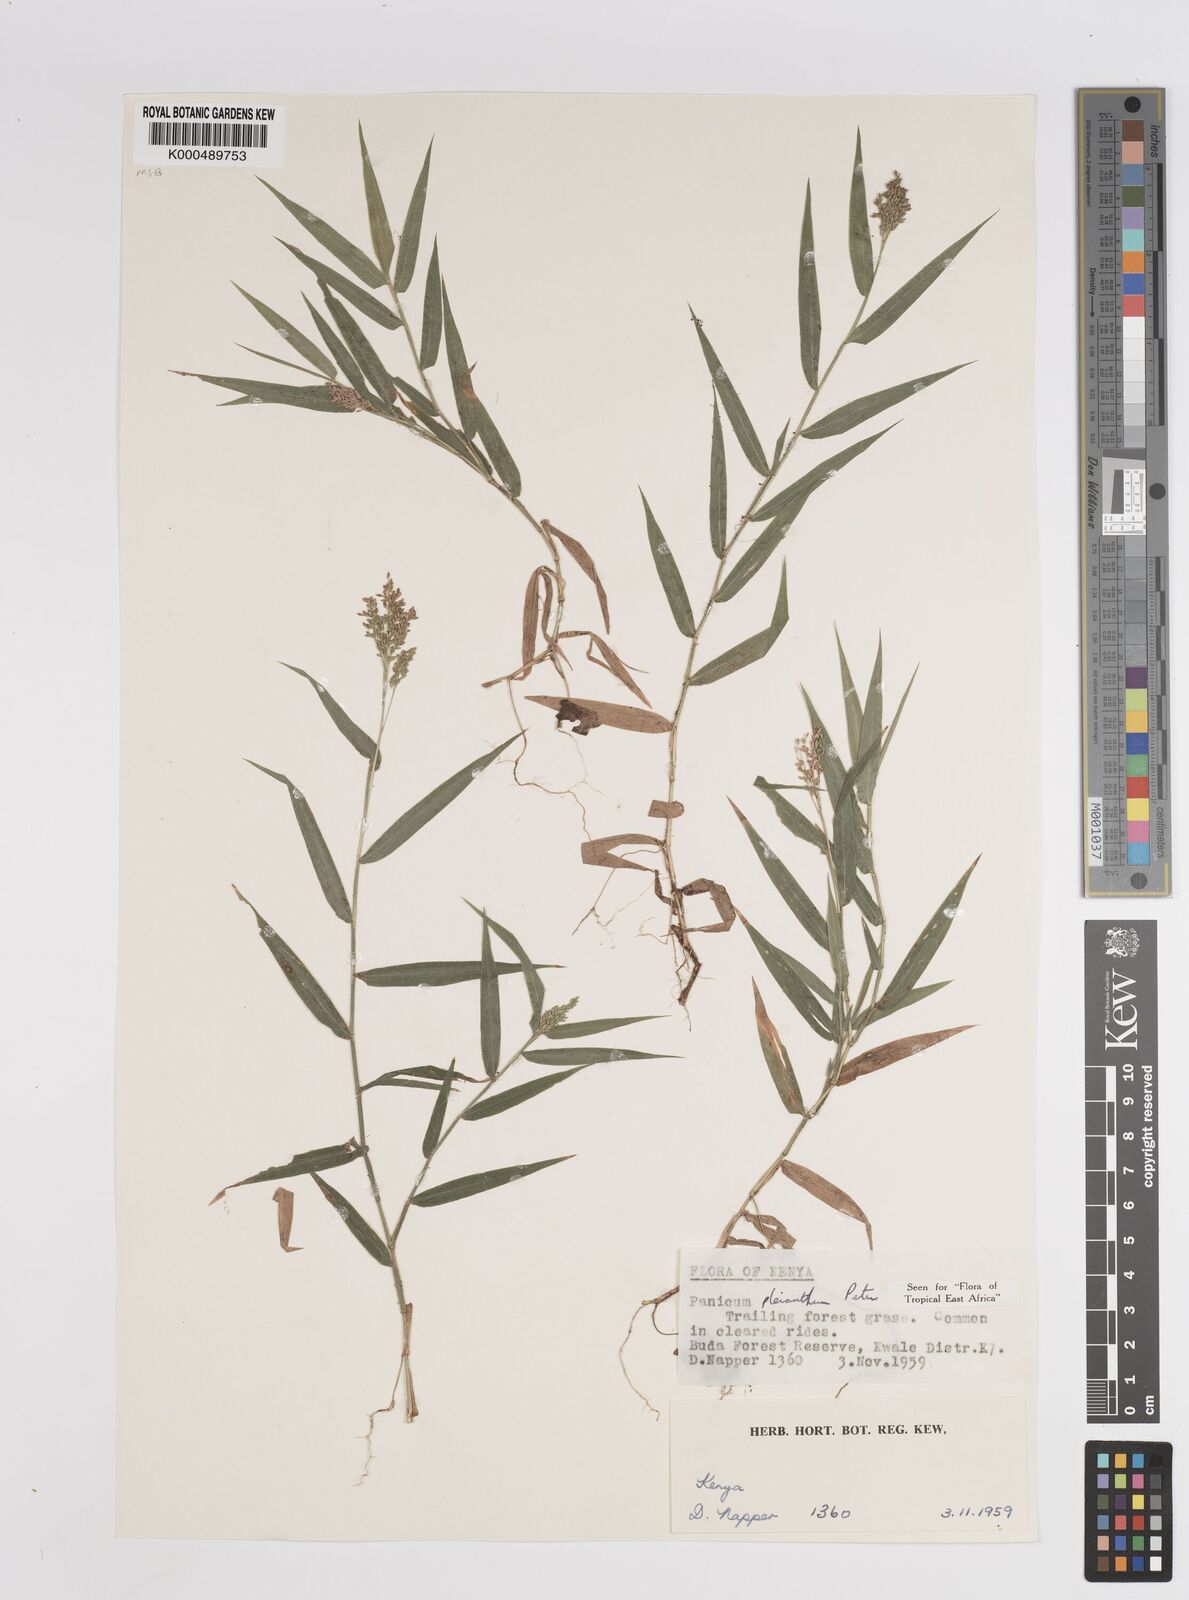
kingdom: Plantae
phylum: Tracheophyta
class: Liliopsida
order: Poales
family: Poaceae
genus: Panicum
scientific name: Panicum pleianthum
